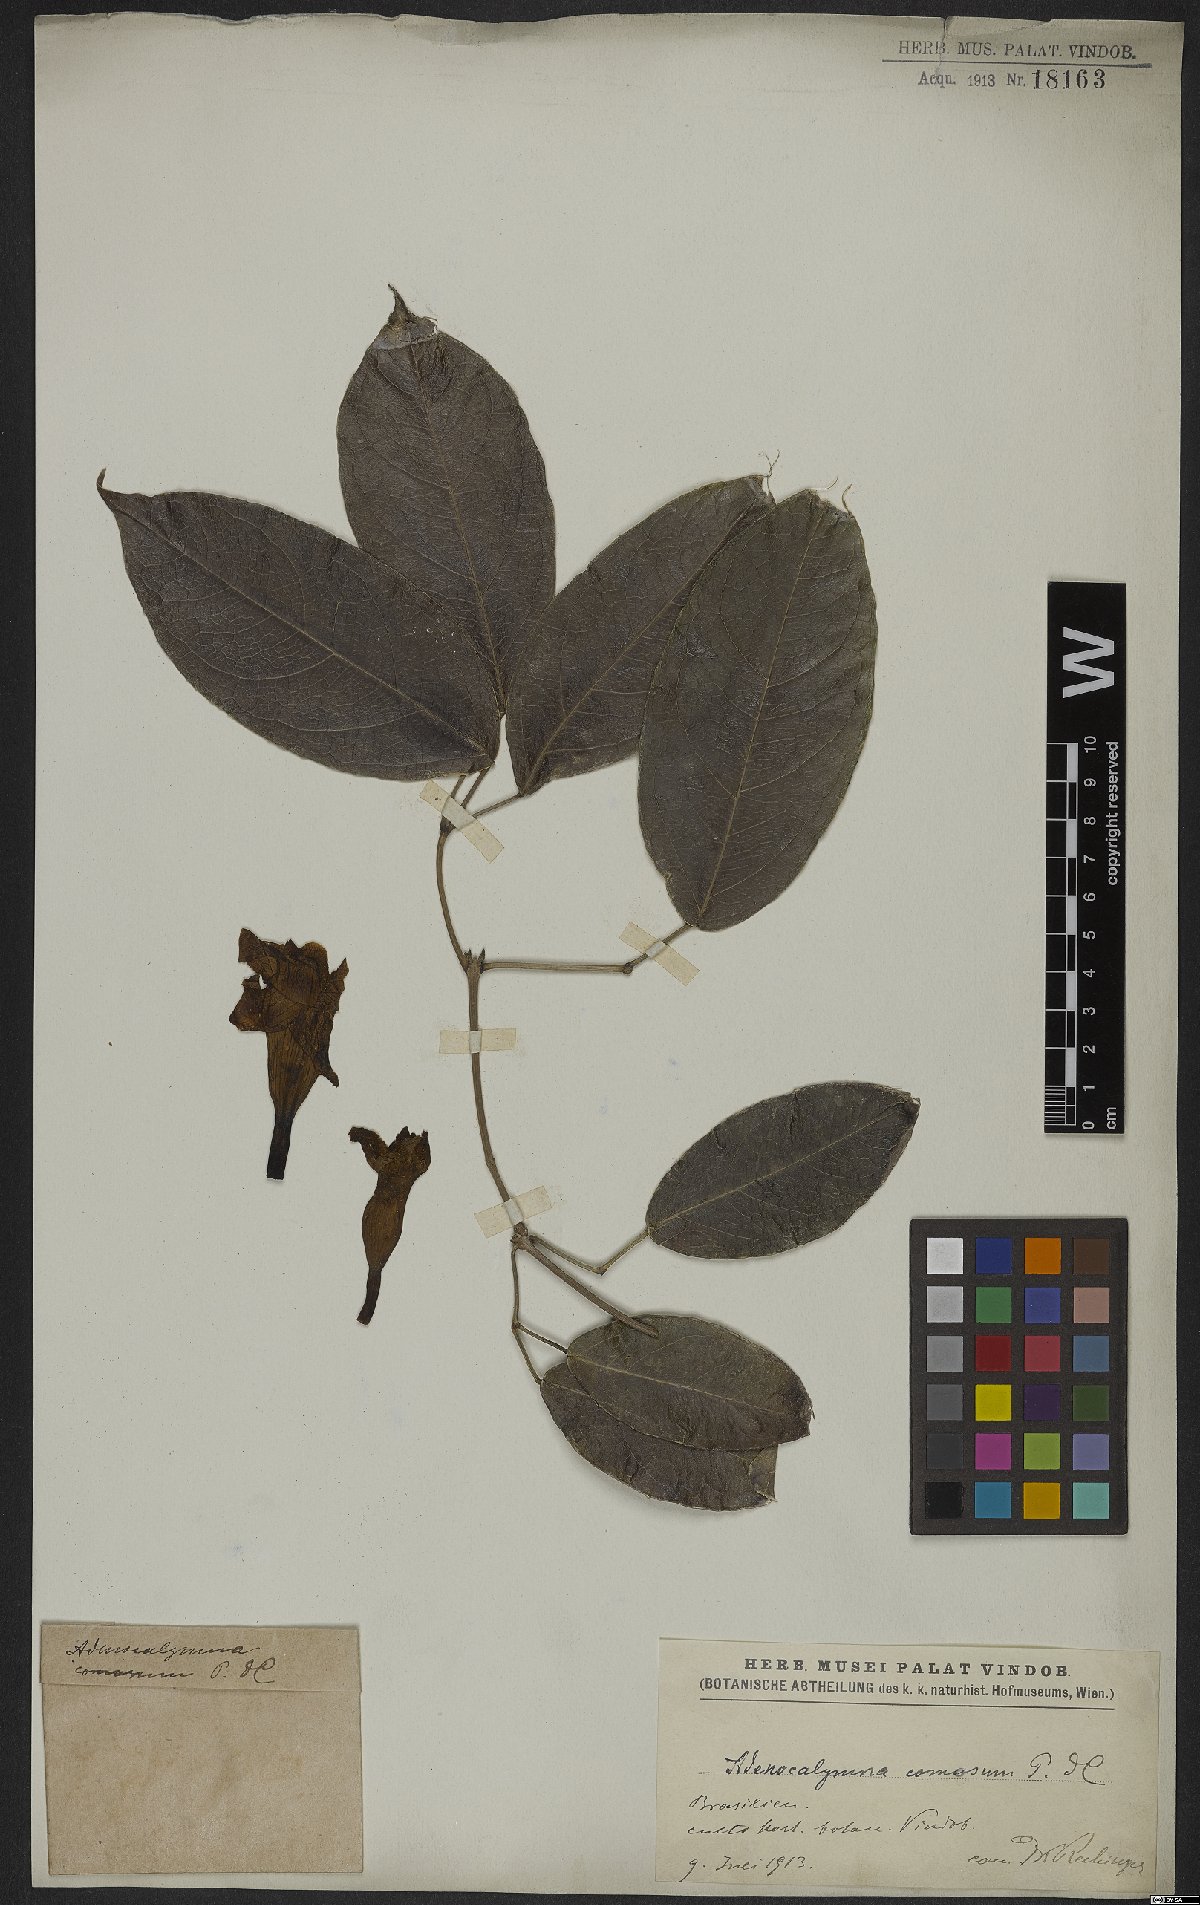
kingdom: Plantae
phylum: Tracheophyta
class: Magnoliopsida
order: Lamiales
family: Bignoniaceae
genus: Adenocalymma
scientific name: Adenocalymma acutissimum
